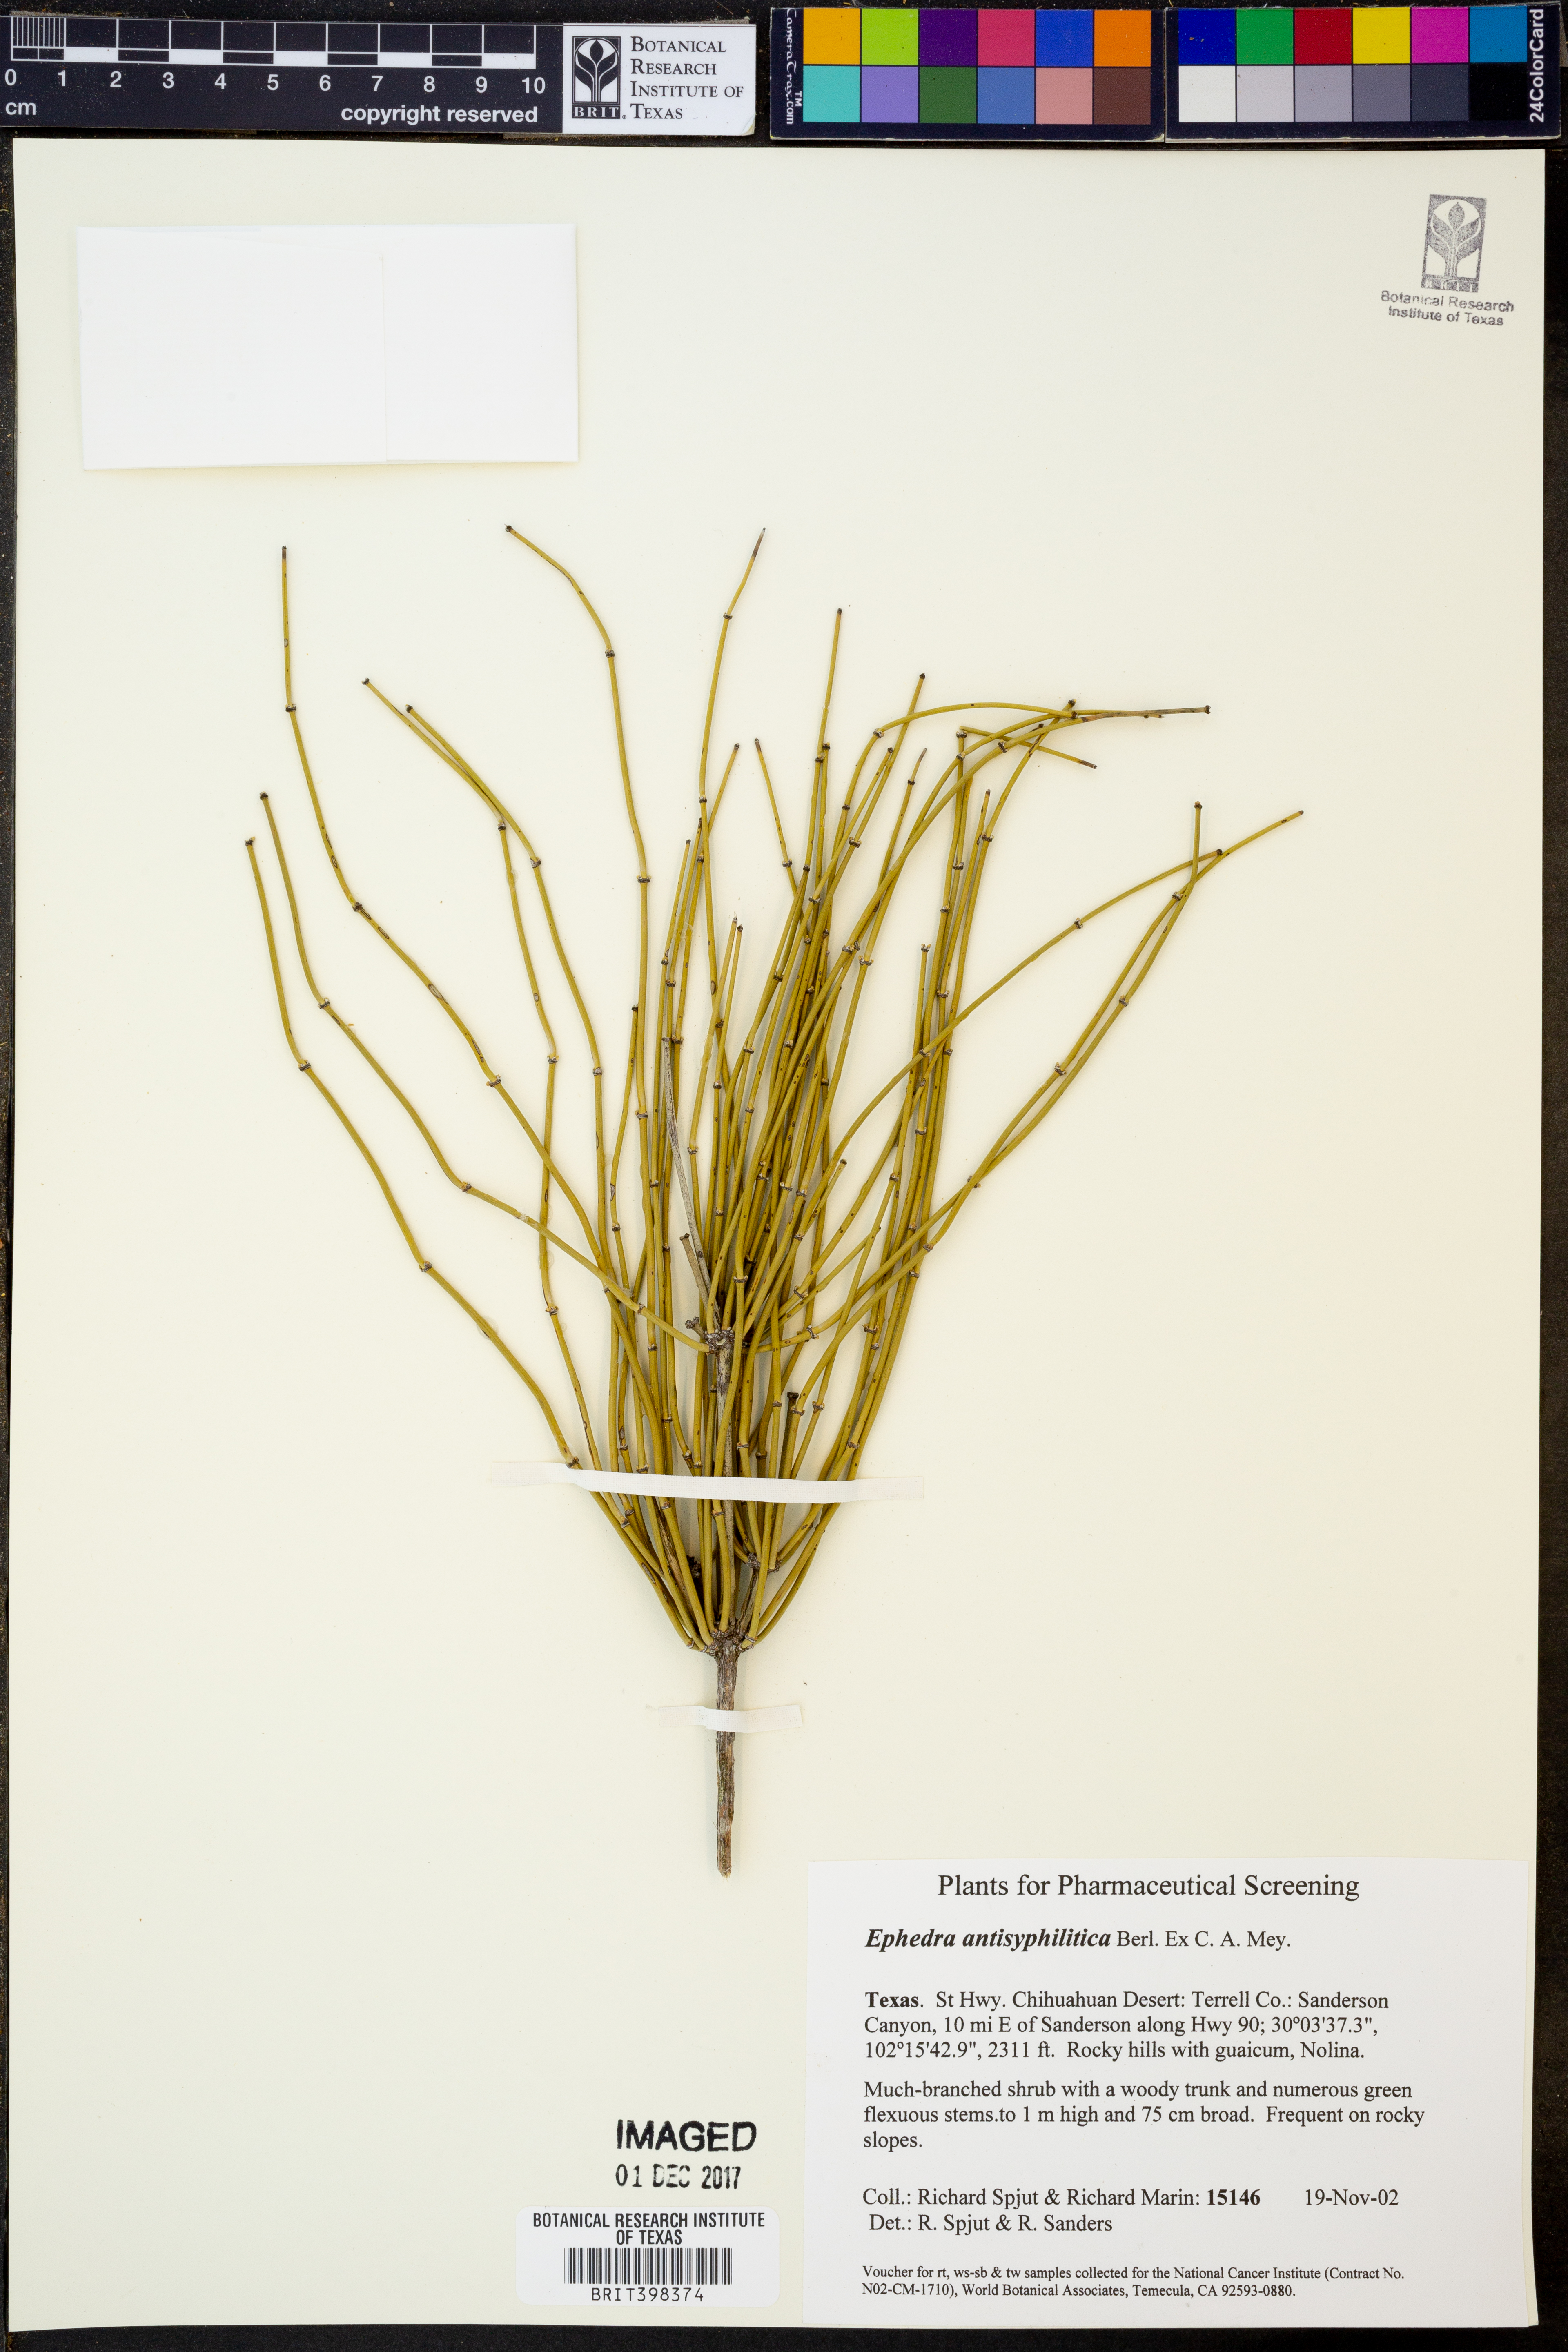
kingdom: Plantae
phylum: Tracheophyta
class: Gnetopsida
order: Ephedrales
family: Ephedraceae
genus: Ephedra
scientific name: Ephedra antisyphilitica
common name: Clipweed
